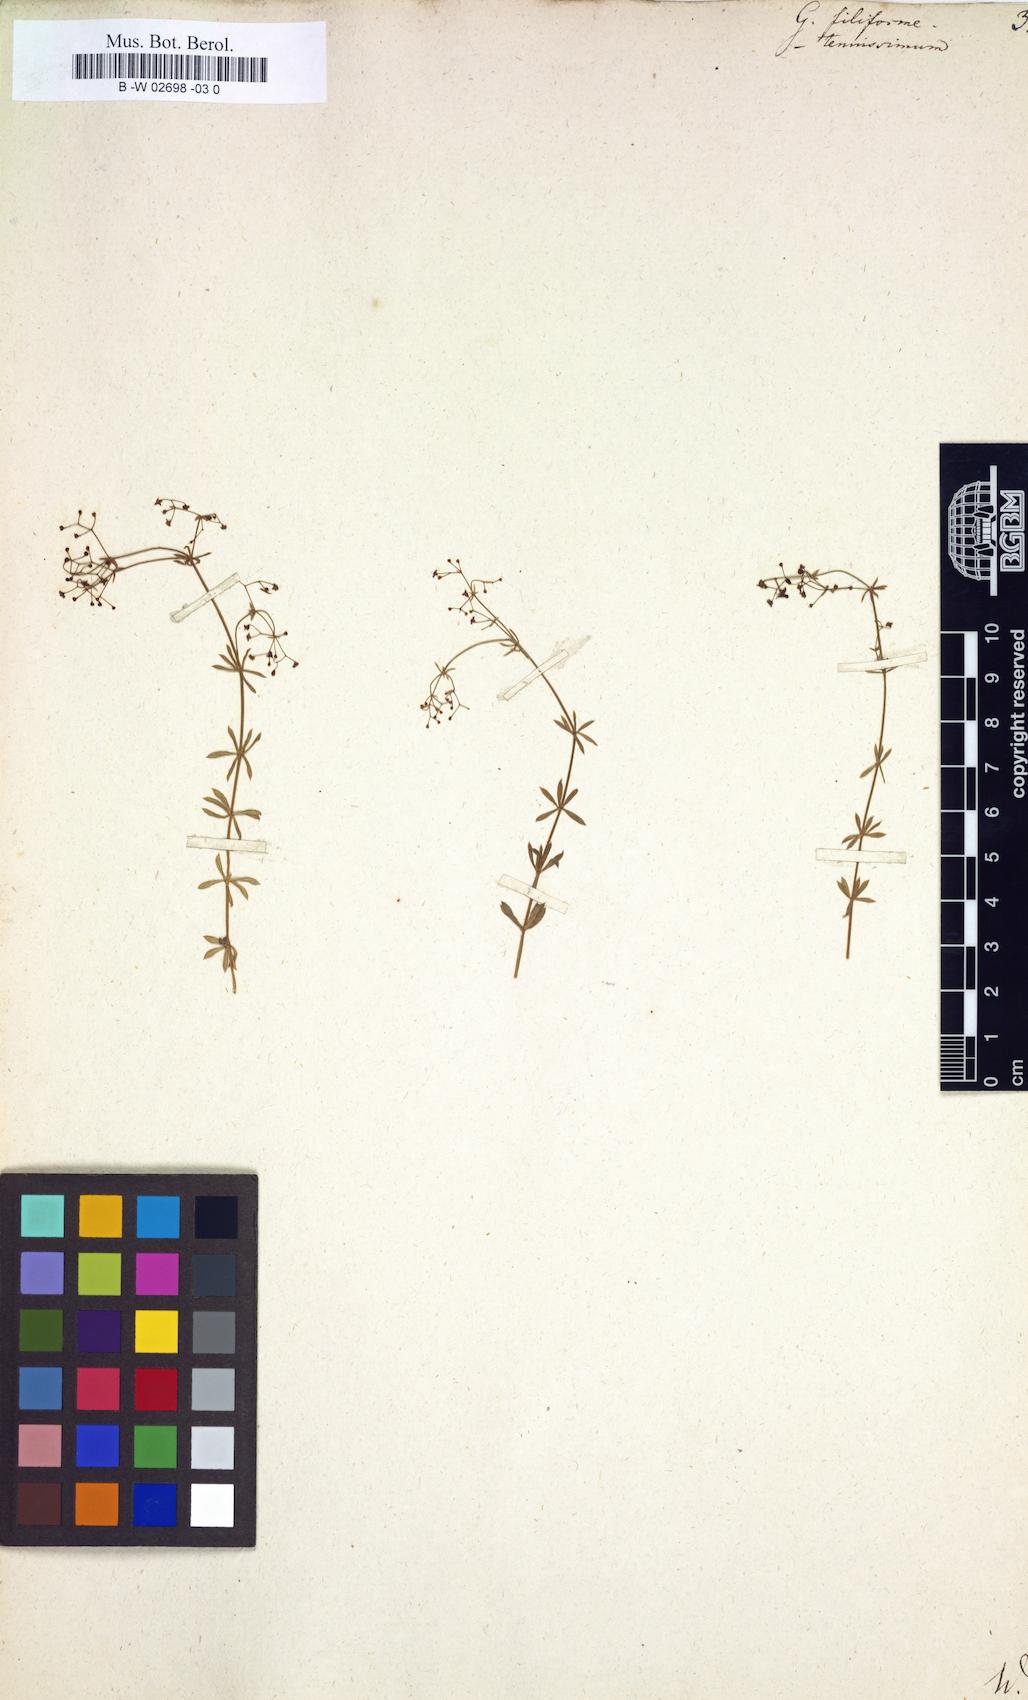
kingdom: Plantae
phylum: Tracheophyta
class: Magnoliopsida
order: Gentianales
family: Rubiaceae
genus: Galium
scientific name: Galium
